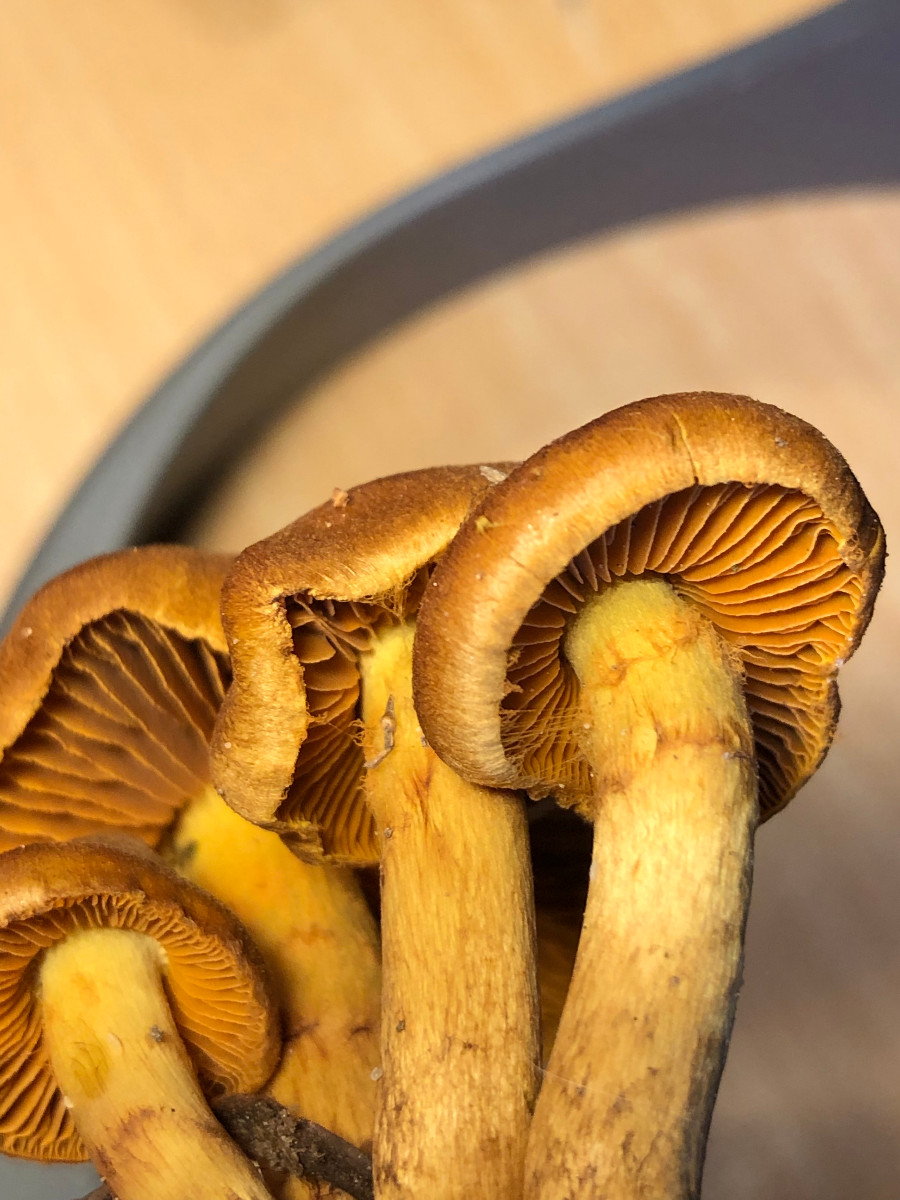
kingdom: Fungi
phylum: Basidiomycota
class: Agaricomycetes
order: Agaricales
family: Cortinariaceae
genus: Cortinarius
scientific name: Cortinarius
